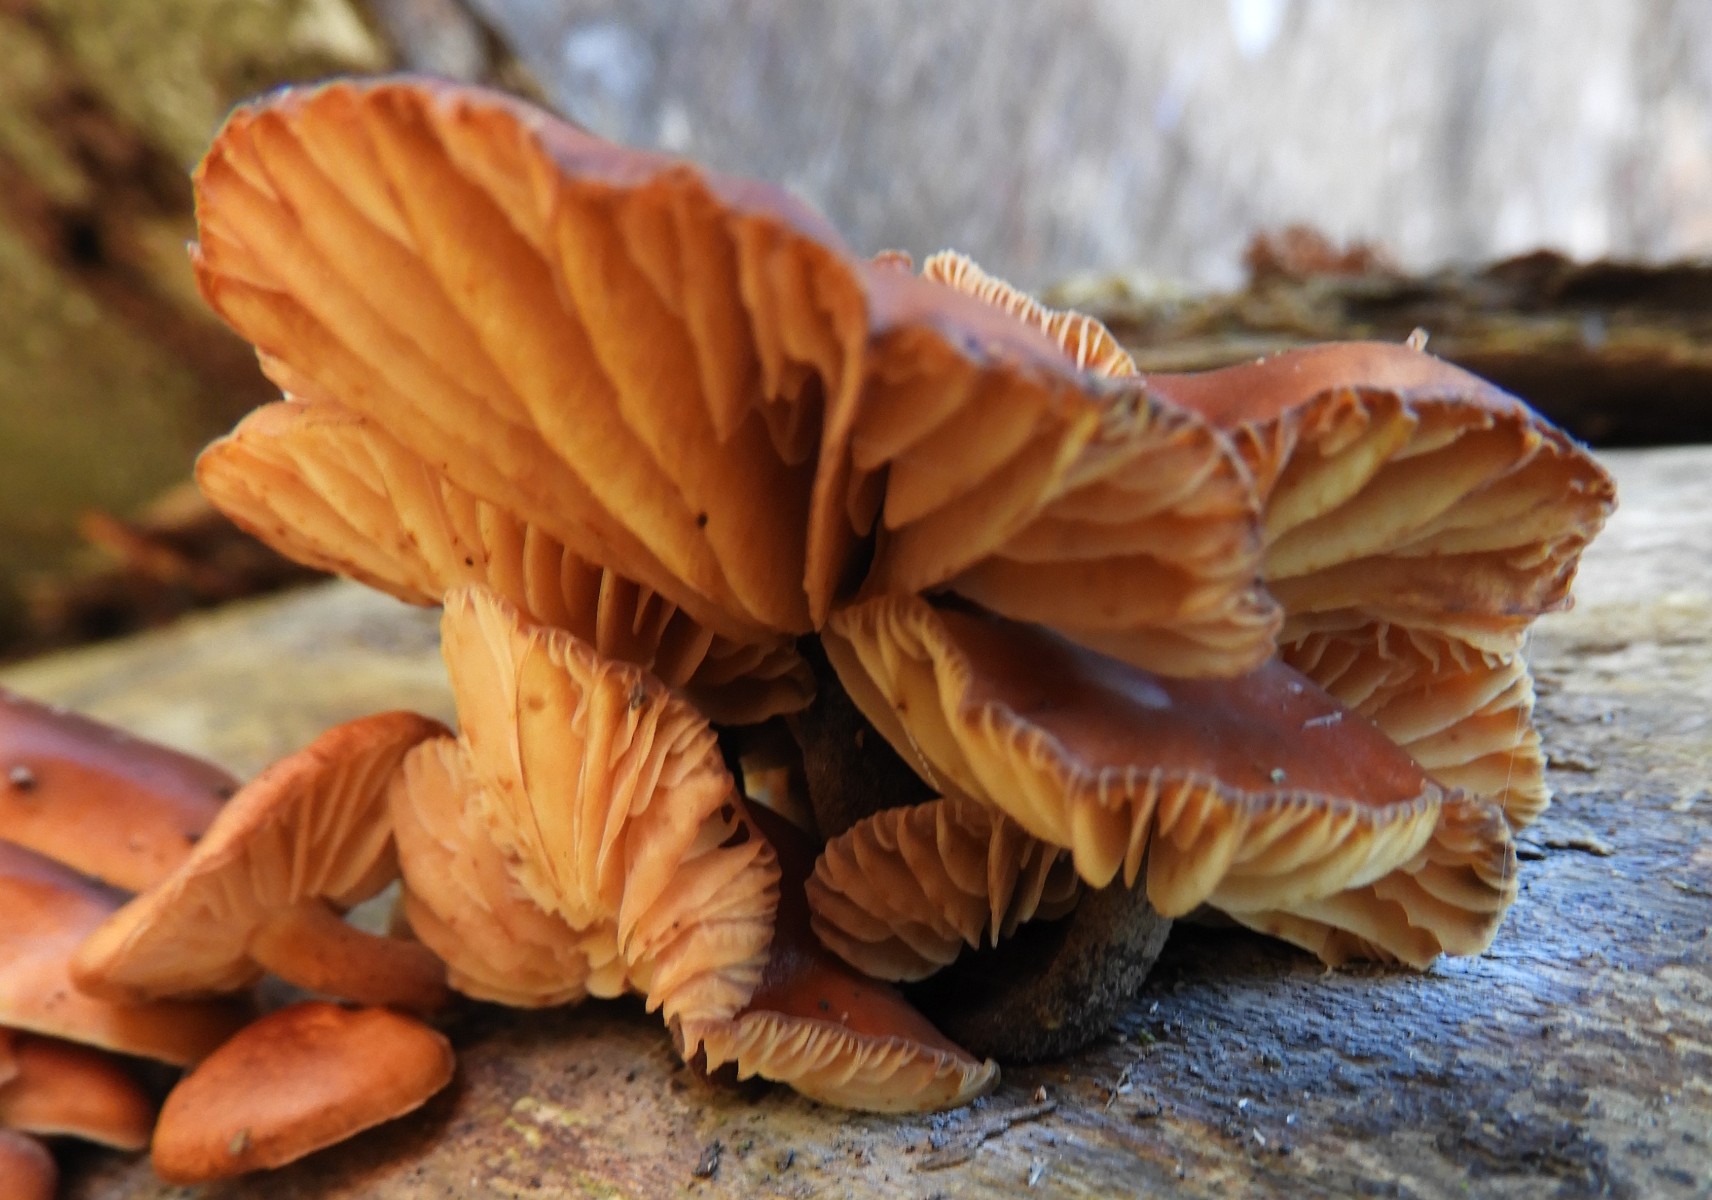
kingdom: Fungi
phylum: Basidiomycota
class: Agaricomycetes
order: Agaricales
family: Physalacriaceae
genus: Flammulina
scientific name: Flammulina velutipes
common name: gul fløjlsfod
